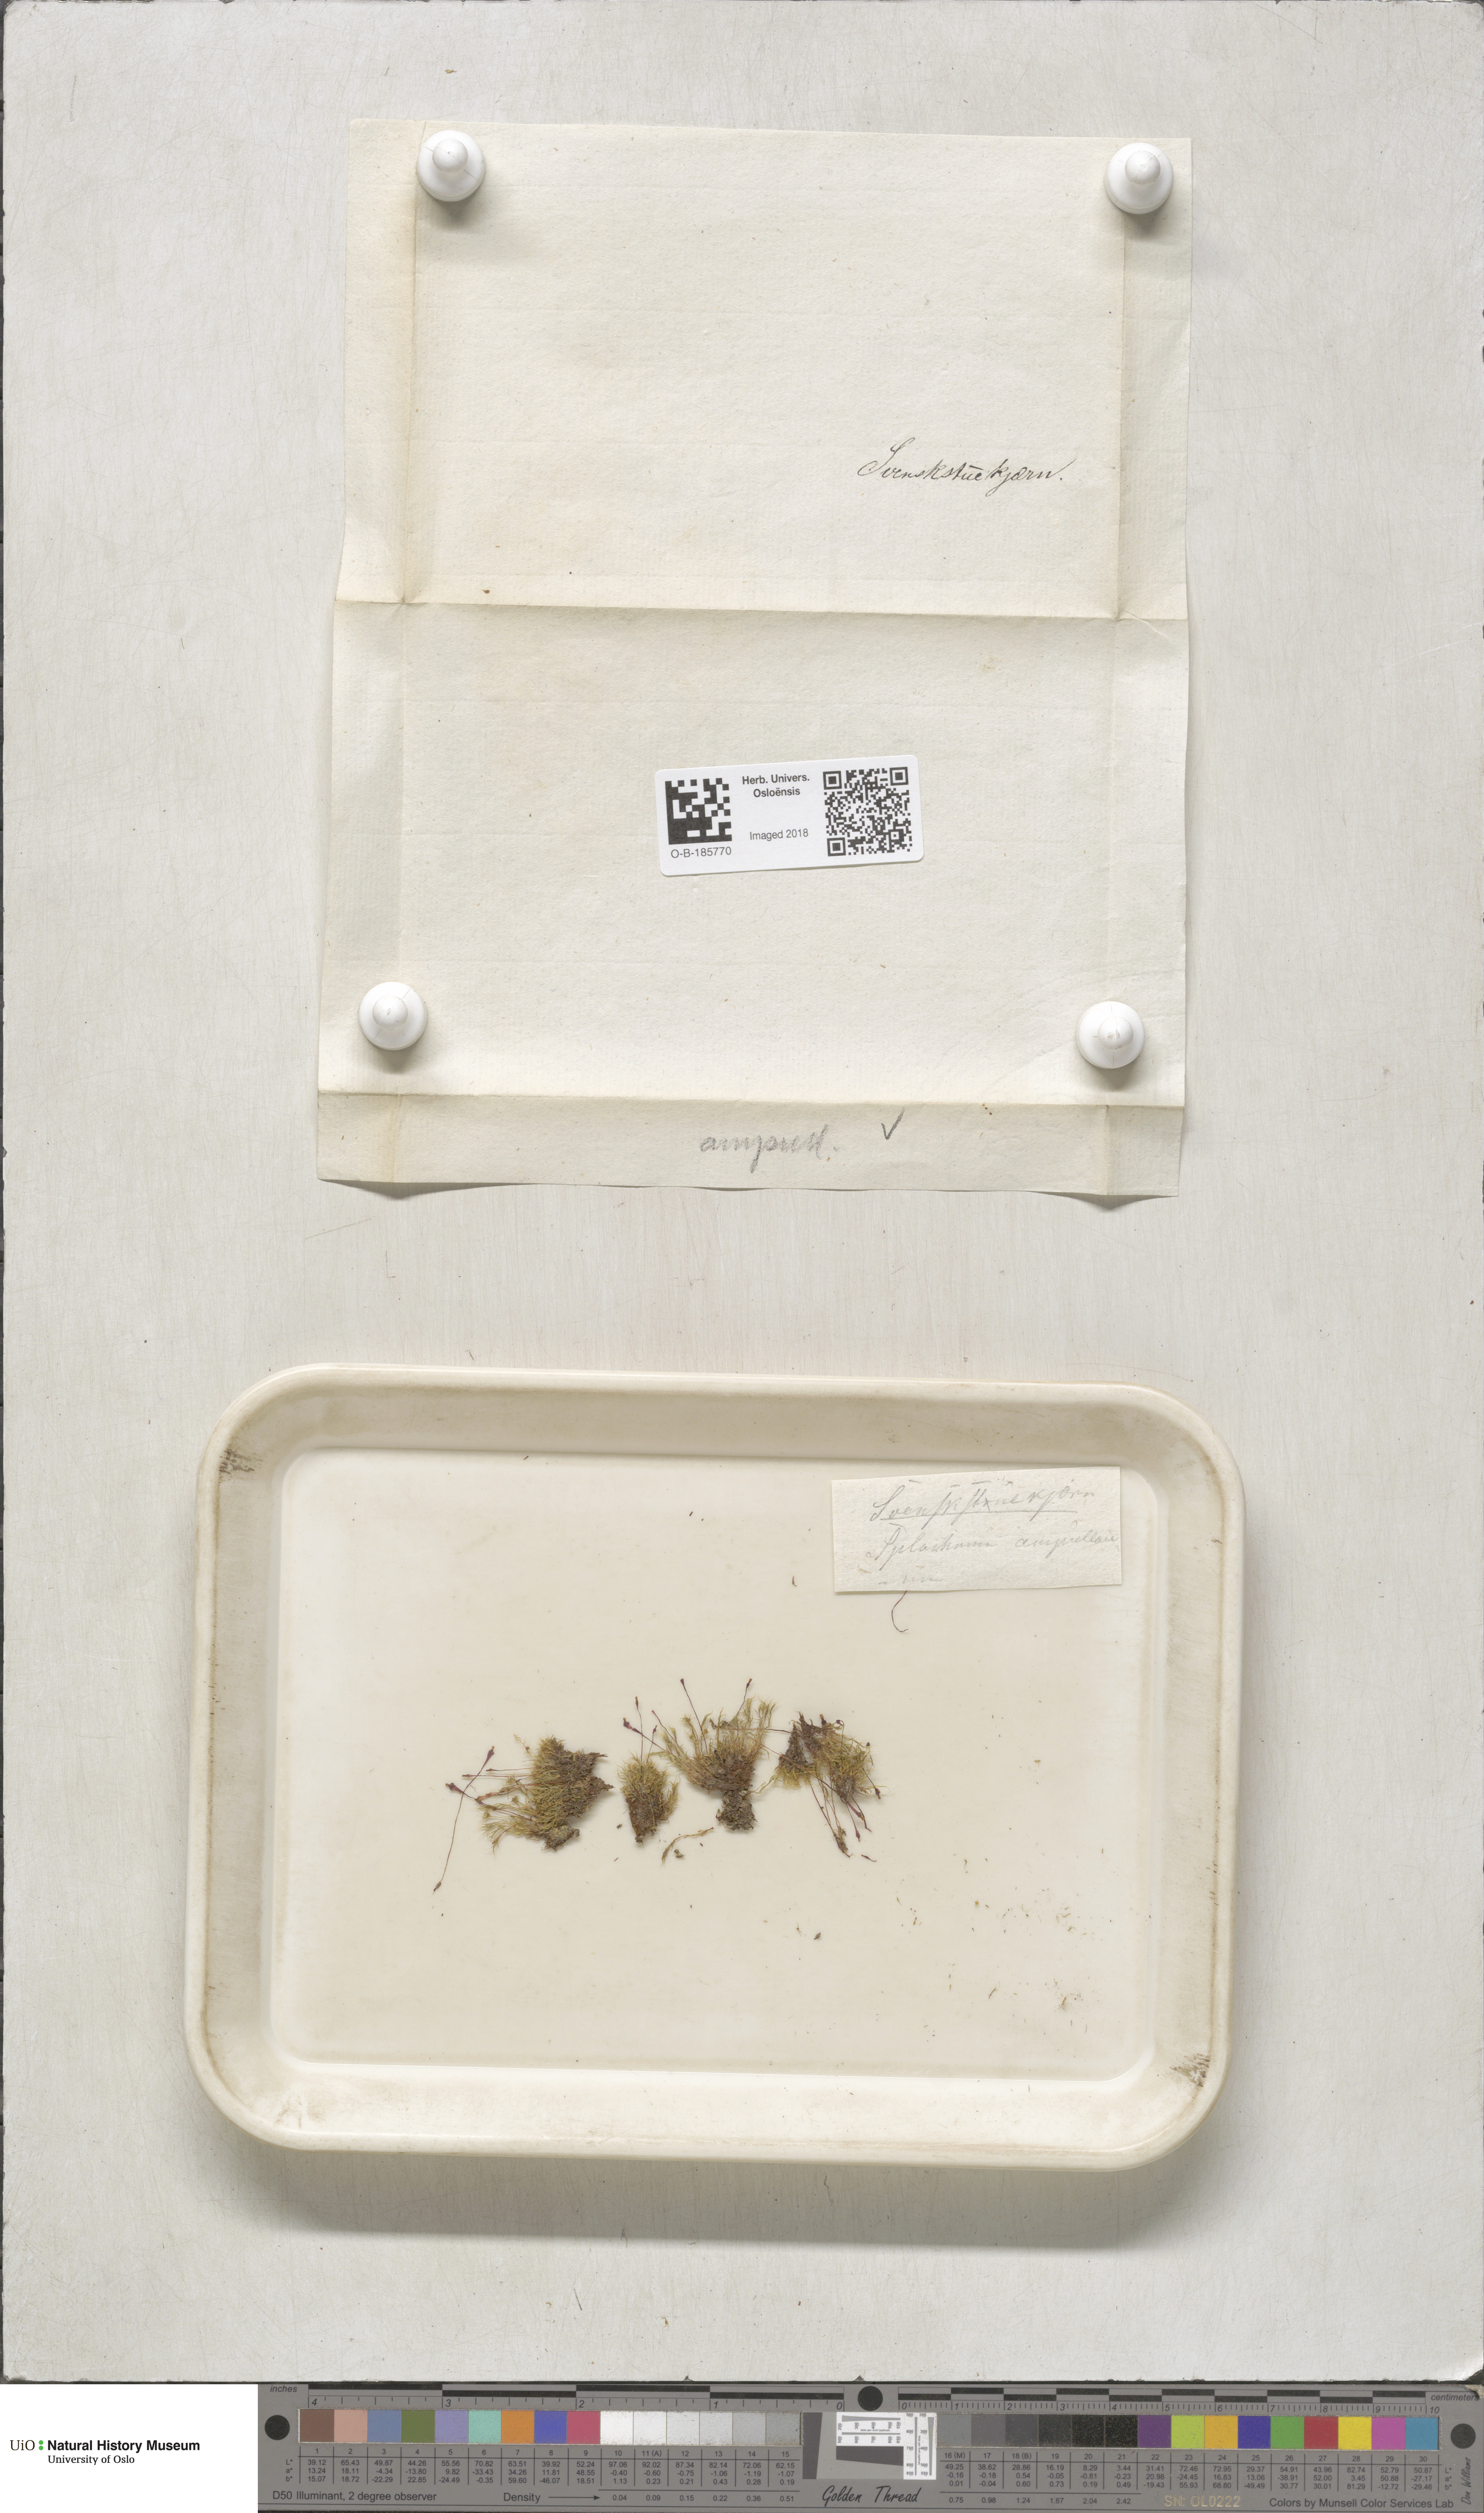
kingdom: Plantae
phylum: Bryophyta
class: Bryopsida
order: Splachnales
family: Splachnaceae
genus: Splachnum
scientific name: Splachnum ampullaceum
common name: Cruet dung moss
